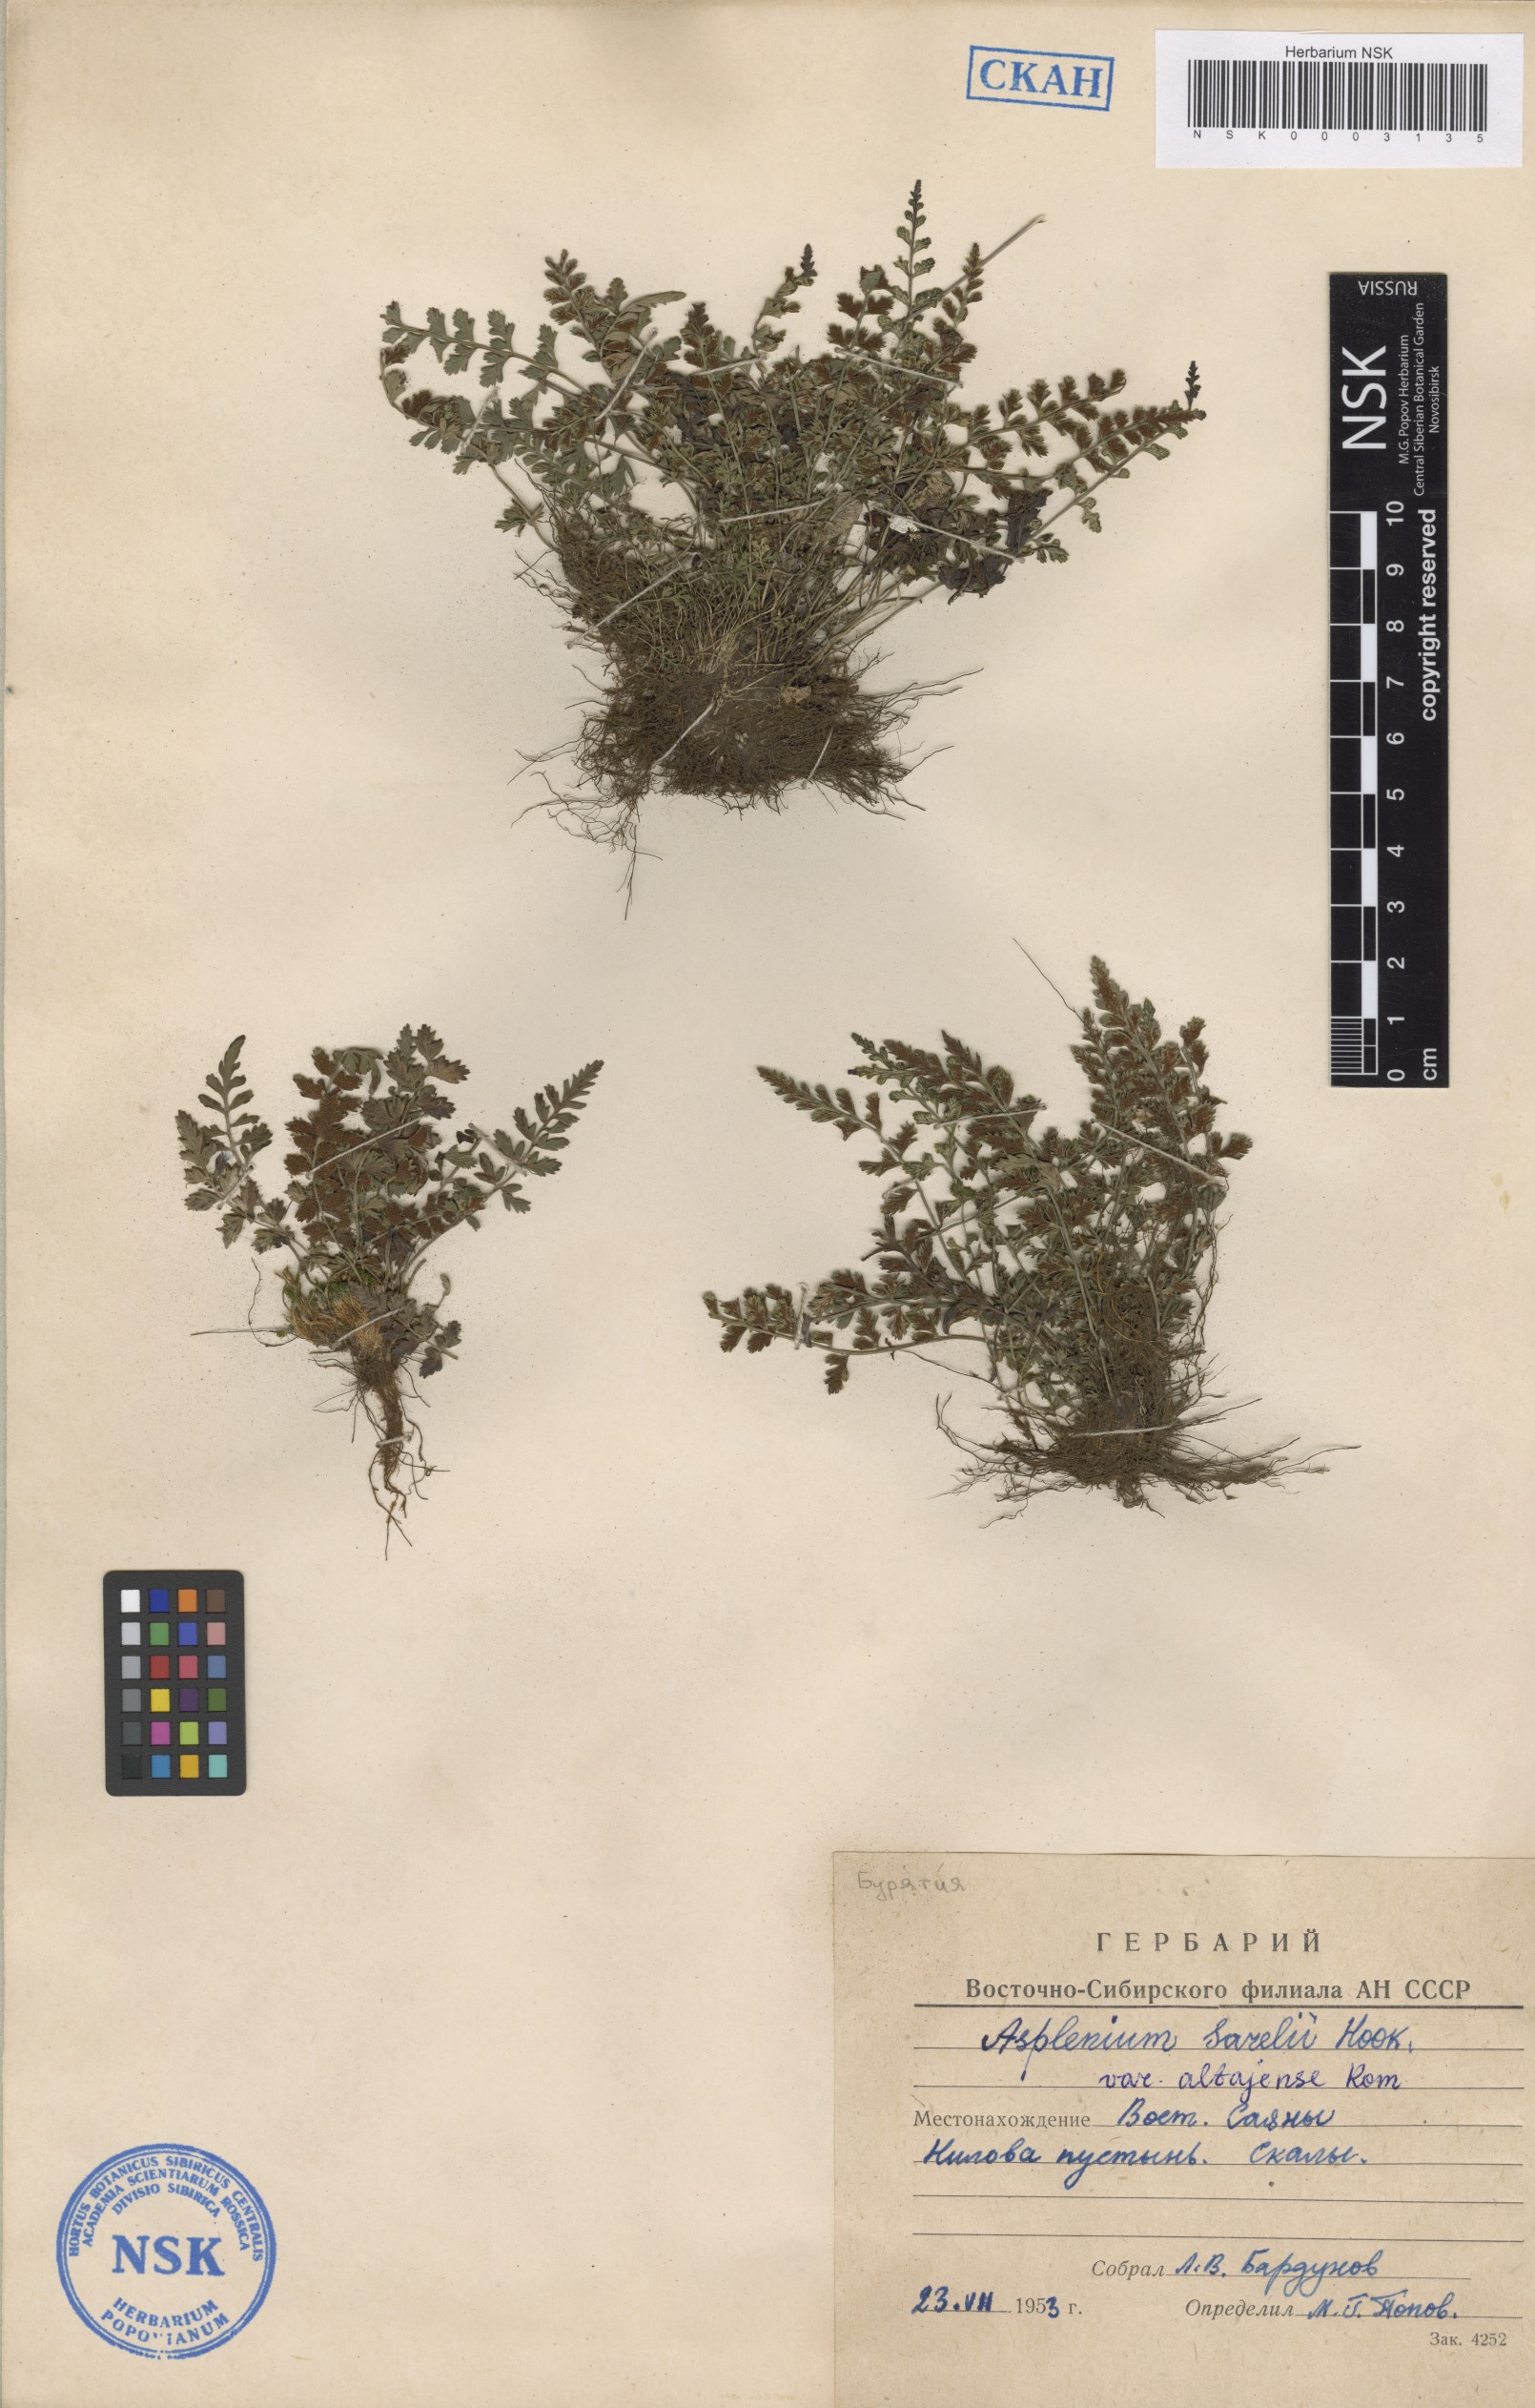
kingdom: Plantae
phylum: Tracheophyta
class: Polypodiopsida
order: Polypodiales
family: Aspleniaceae
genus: Asplenium
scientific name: Asplenium altajense
